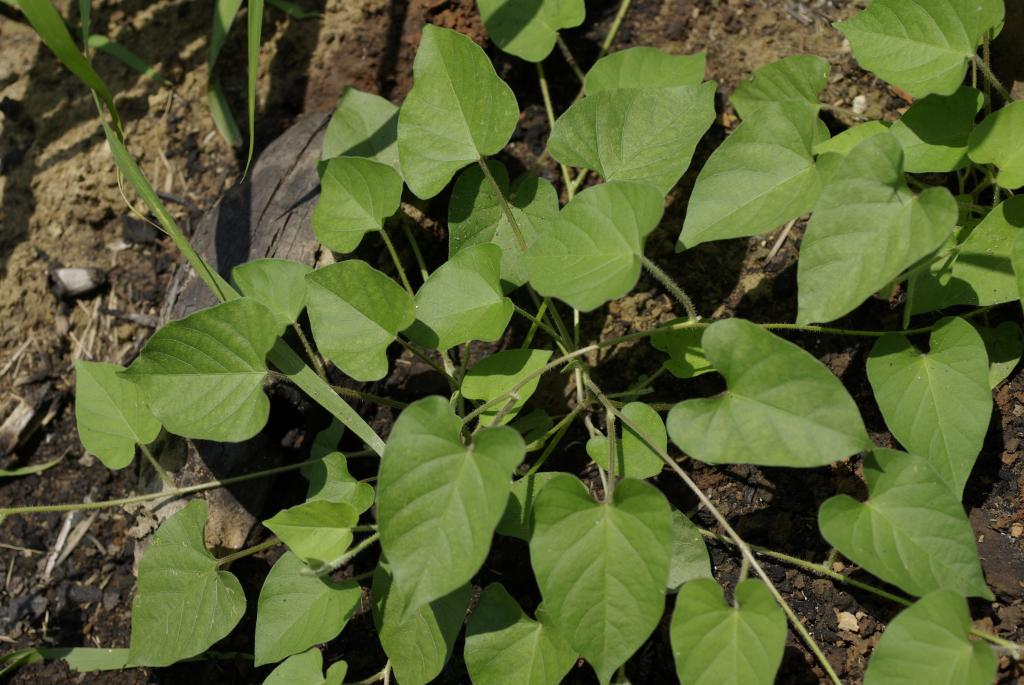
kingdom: Plantae
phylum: Tracheophyta
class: Magnoliopsida
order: Solanales
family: Convolvulaceae
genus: Ipomoea
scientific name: Ipomoea biflora
